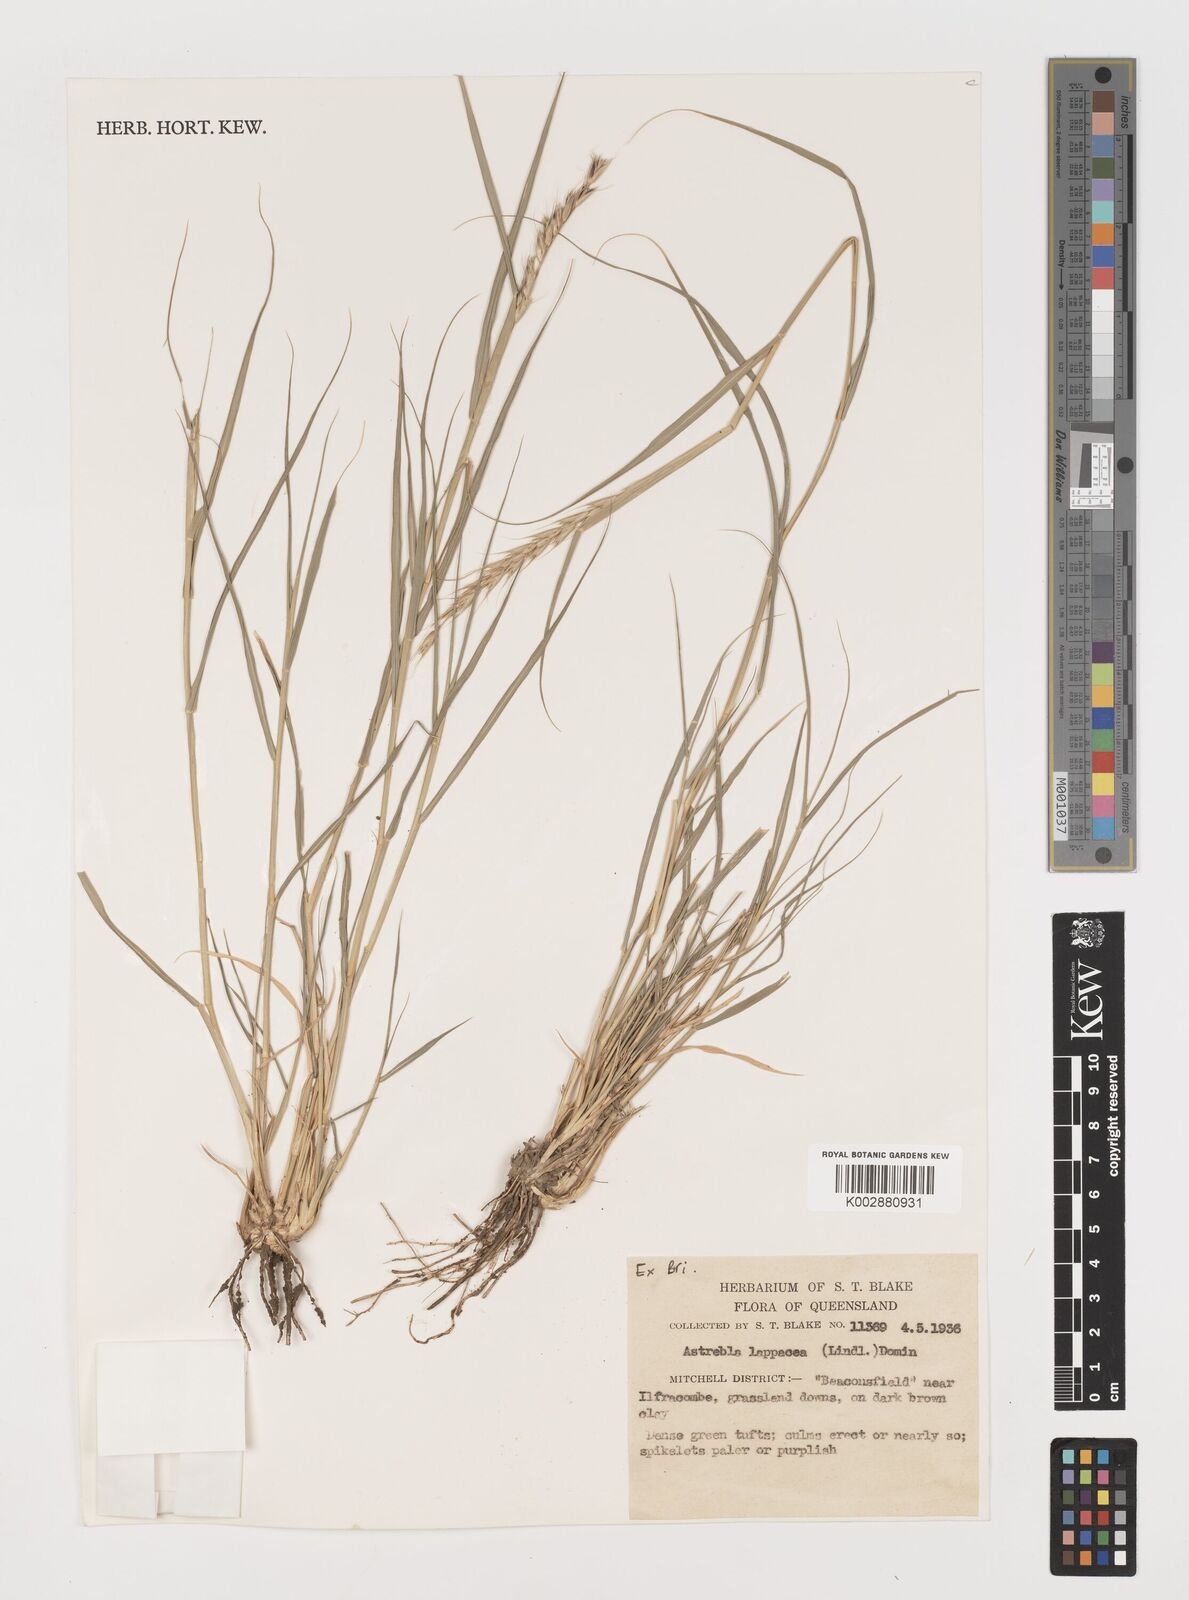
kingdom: Plantae
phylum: Tracheophyta
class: Liliopsida
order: Poales
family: Poaceae
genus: Astrebla
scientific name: Astrebla lappacea
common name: Curly mitchell grass
